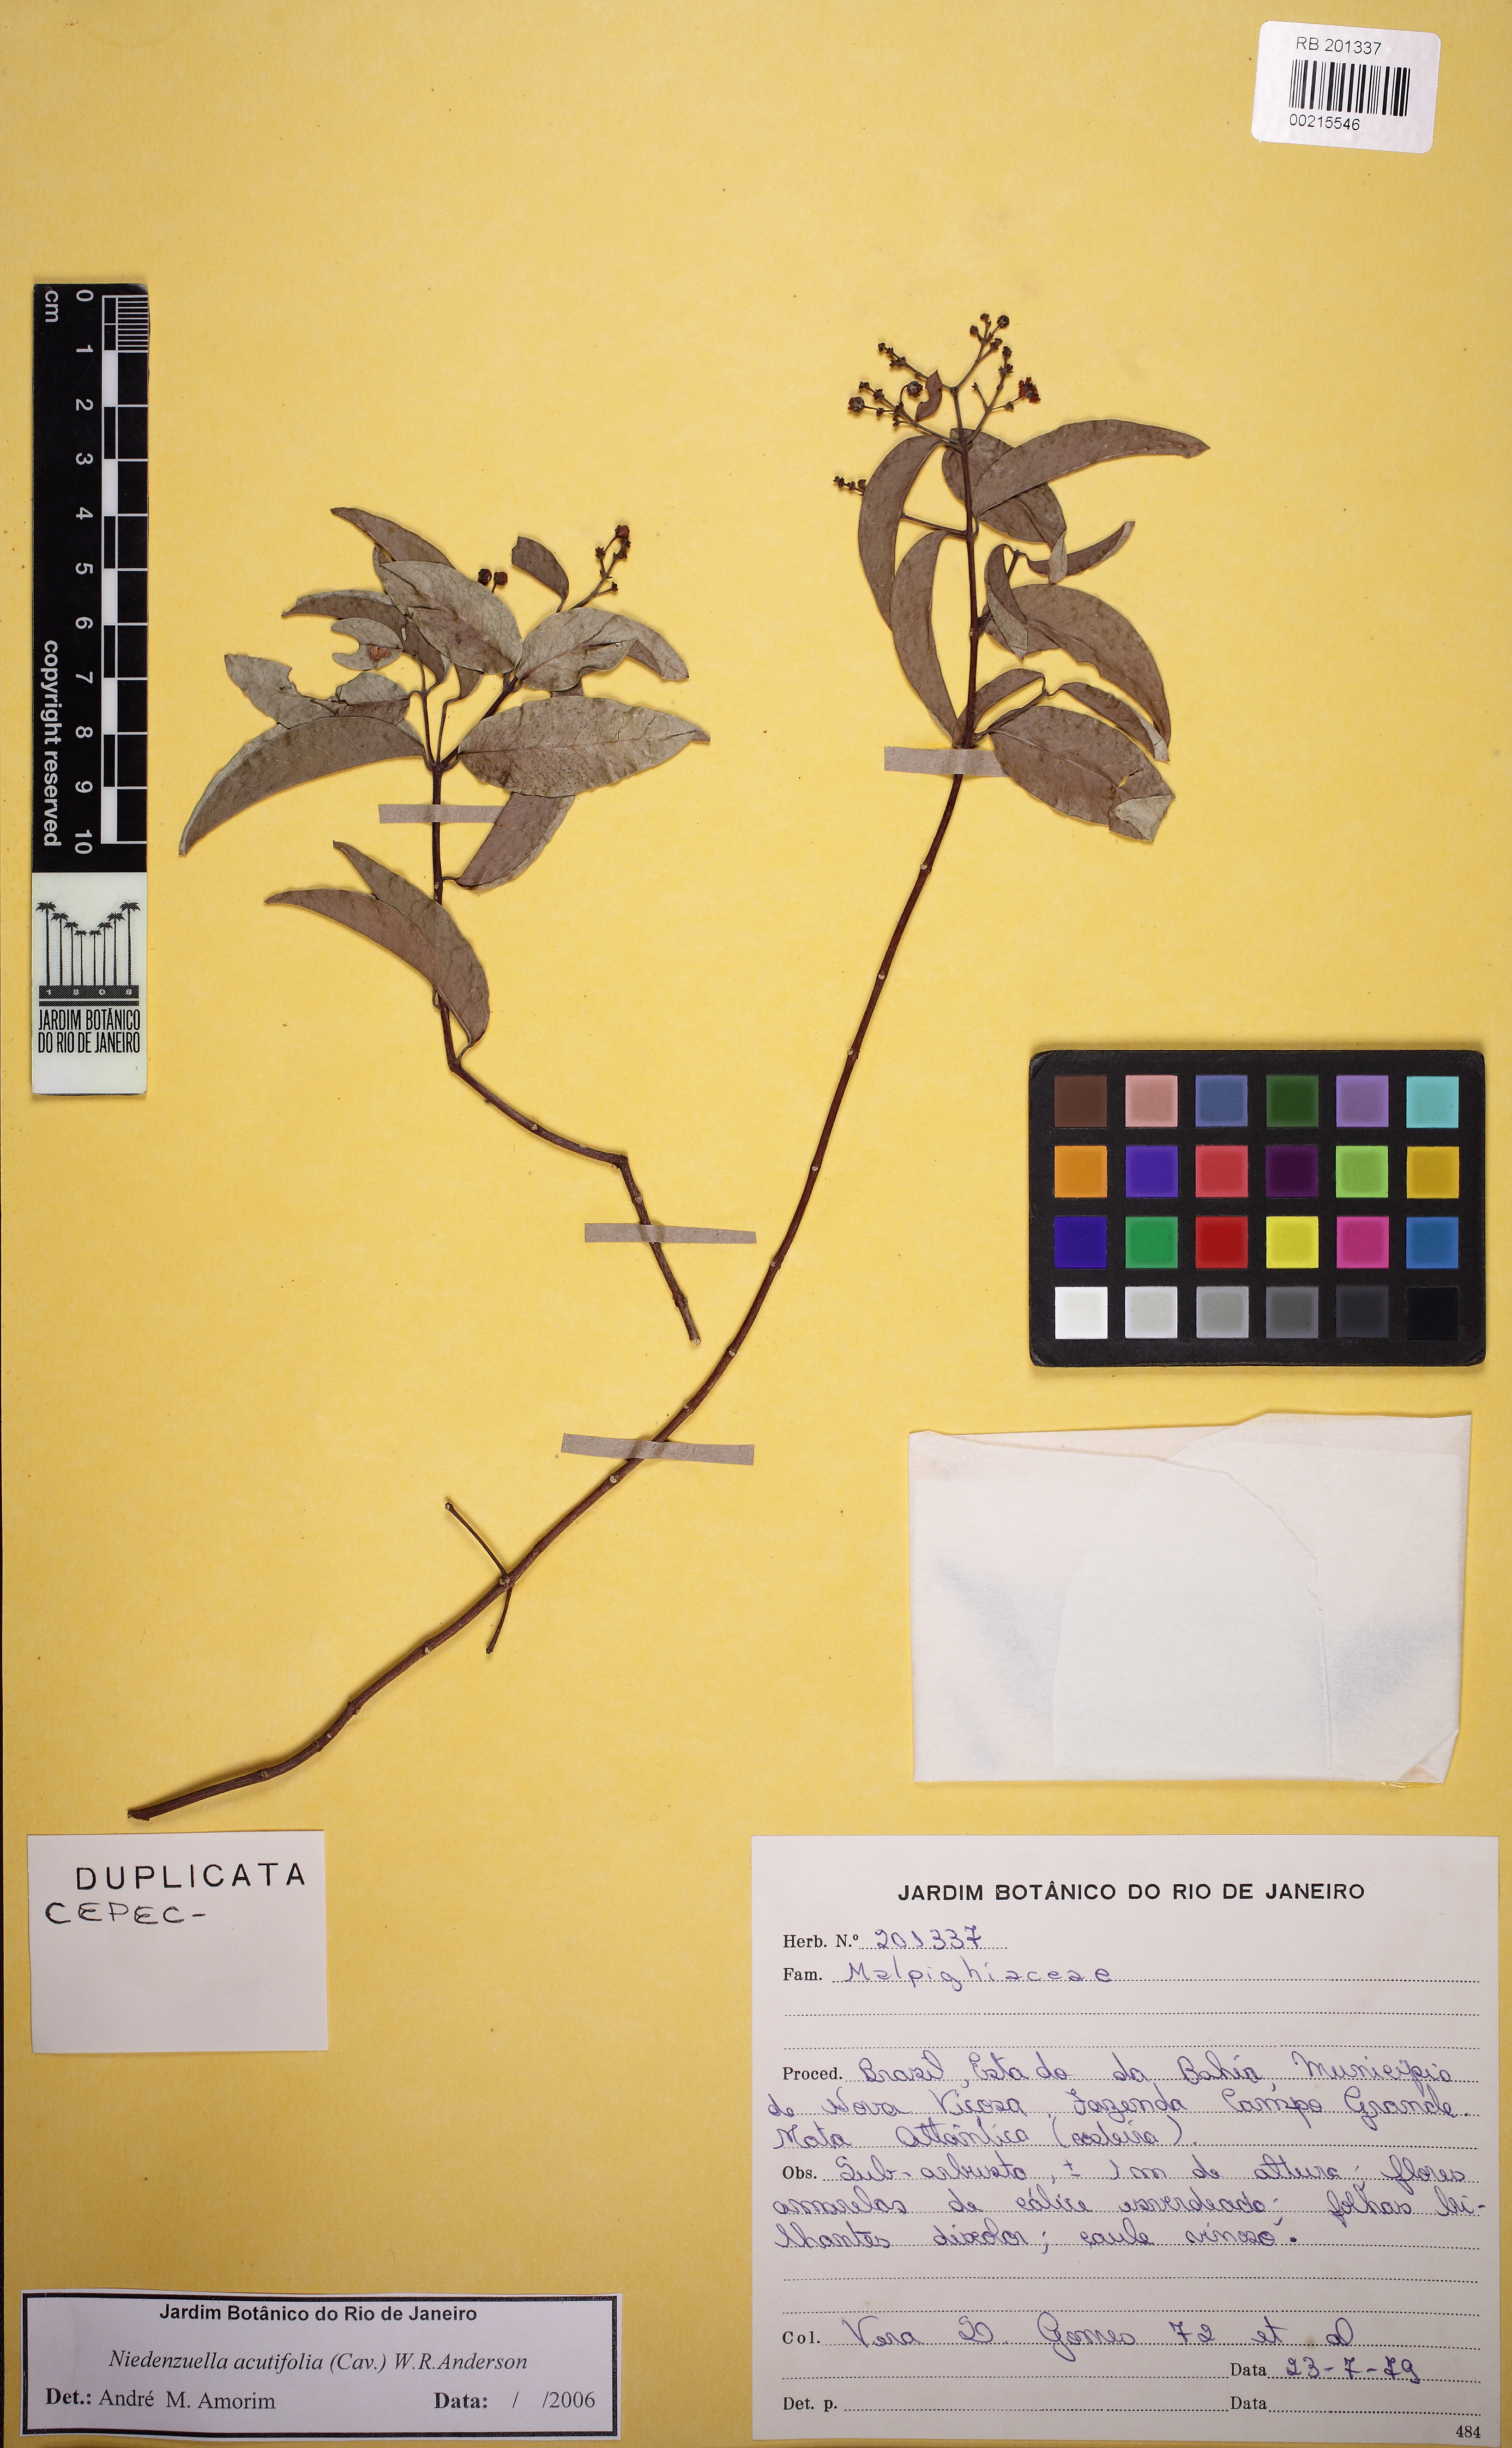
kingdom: Plantae
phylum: Tracheophyta
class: Magnoliopsida
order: Malpighiales
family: Malpighiaceae
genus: Niedenzuella
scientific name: Niedenzuella acutifolia
